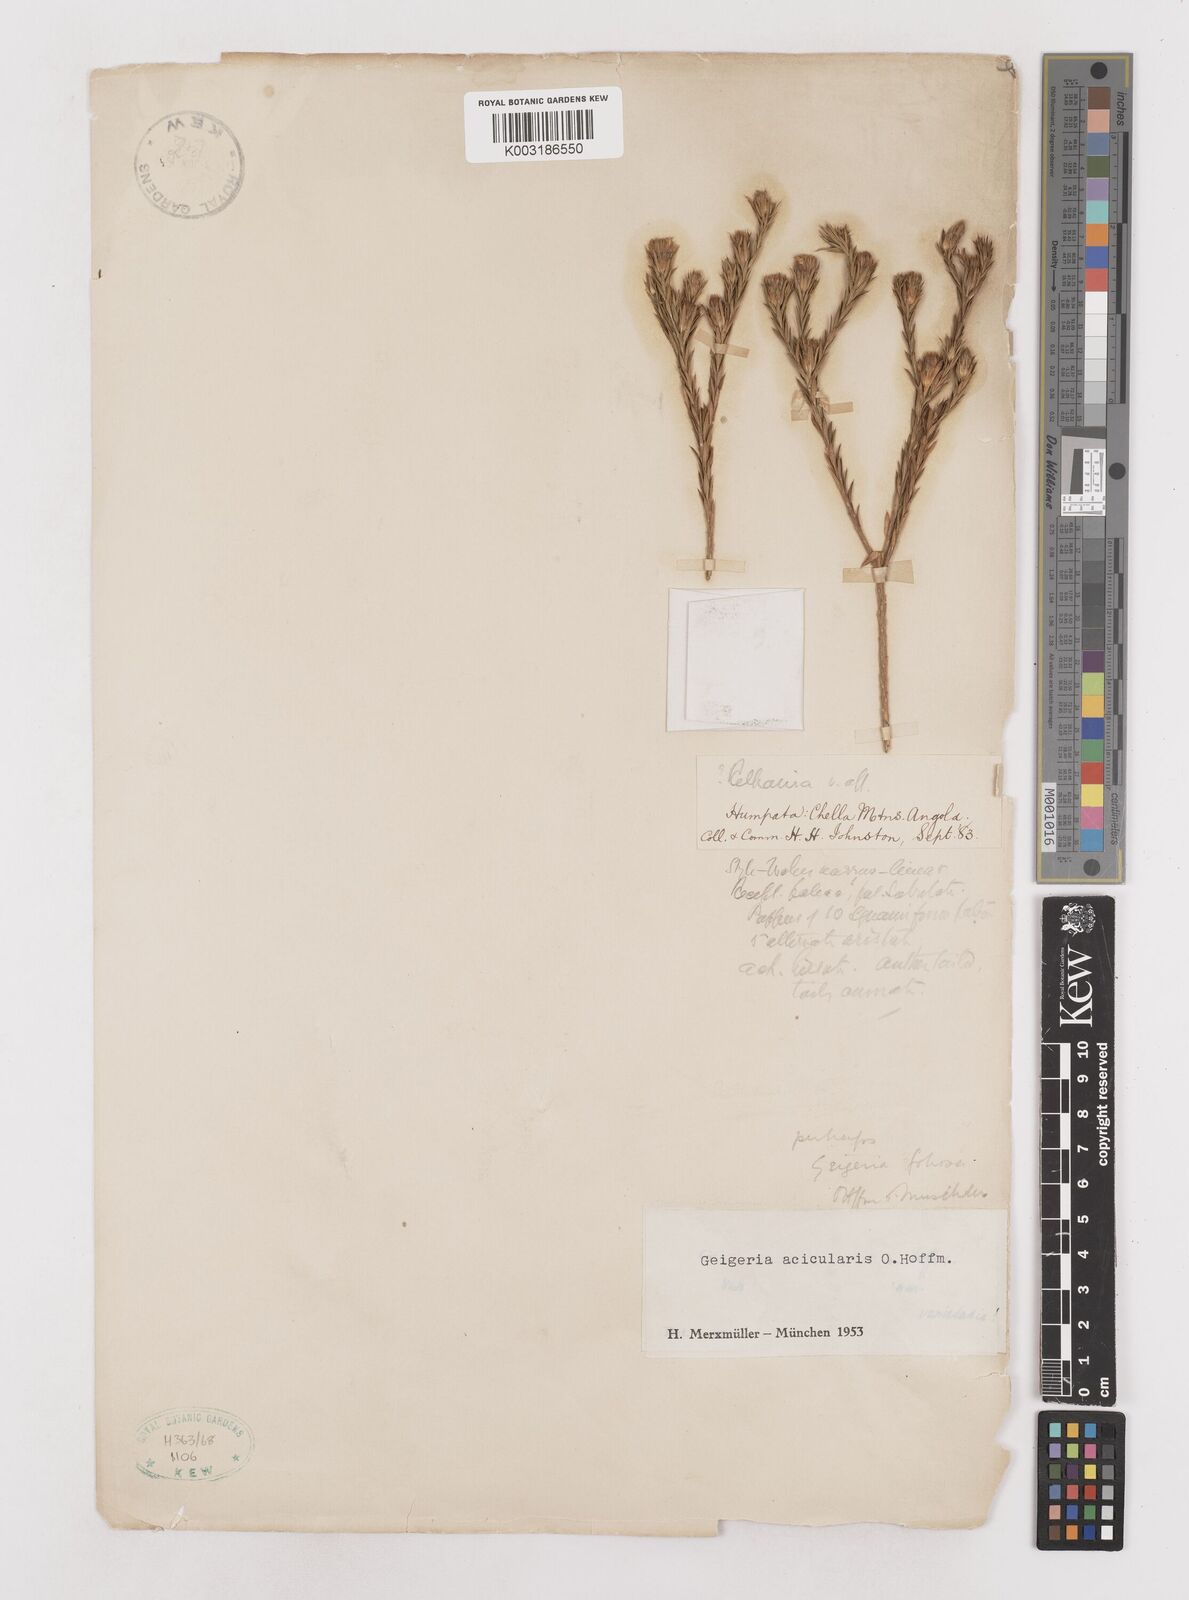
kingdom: Plantae
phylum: Tracheophyta
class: Magnoliopsida
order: Asterales
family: Asteraceae
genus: Geigeria
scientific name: Geigeria acicularis
